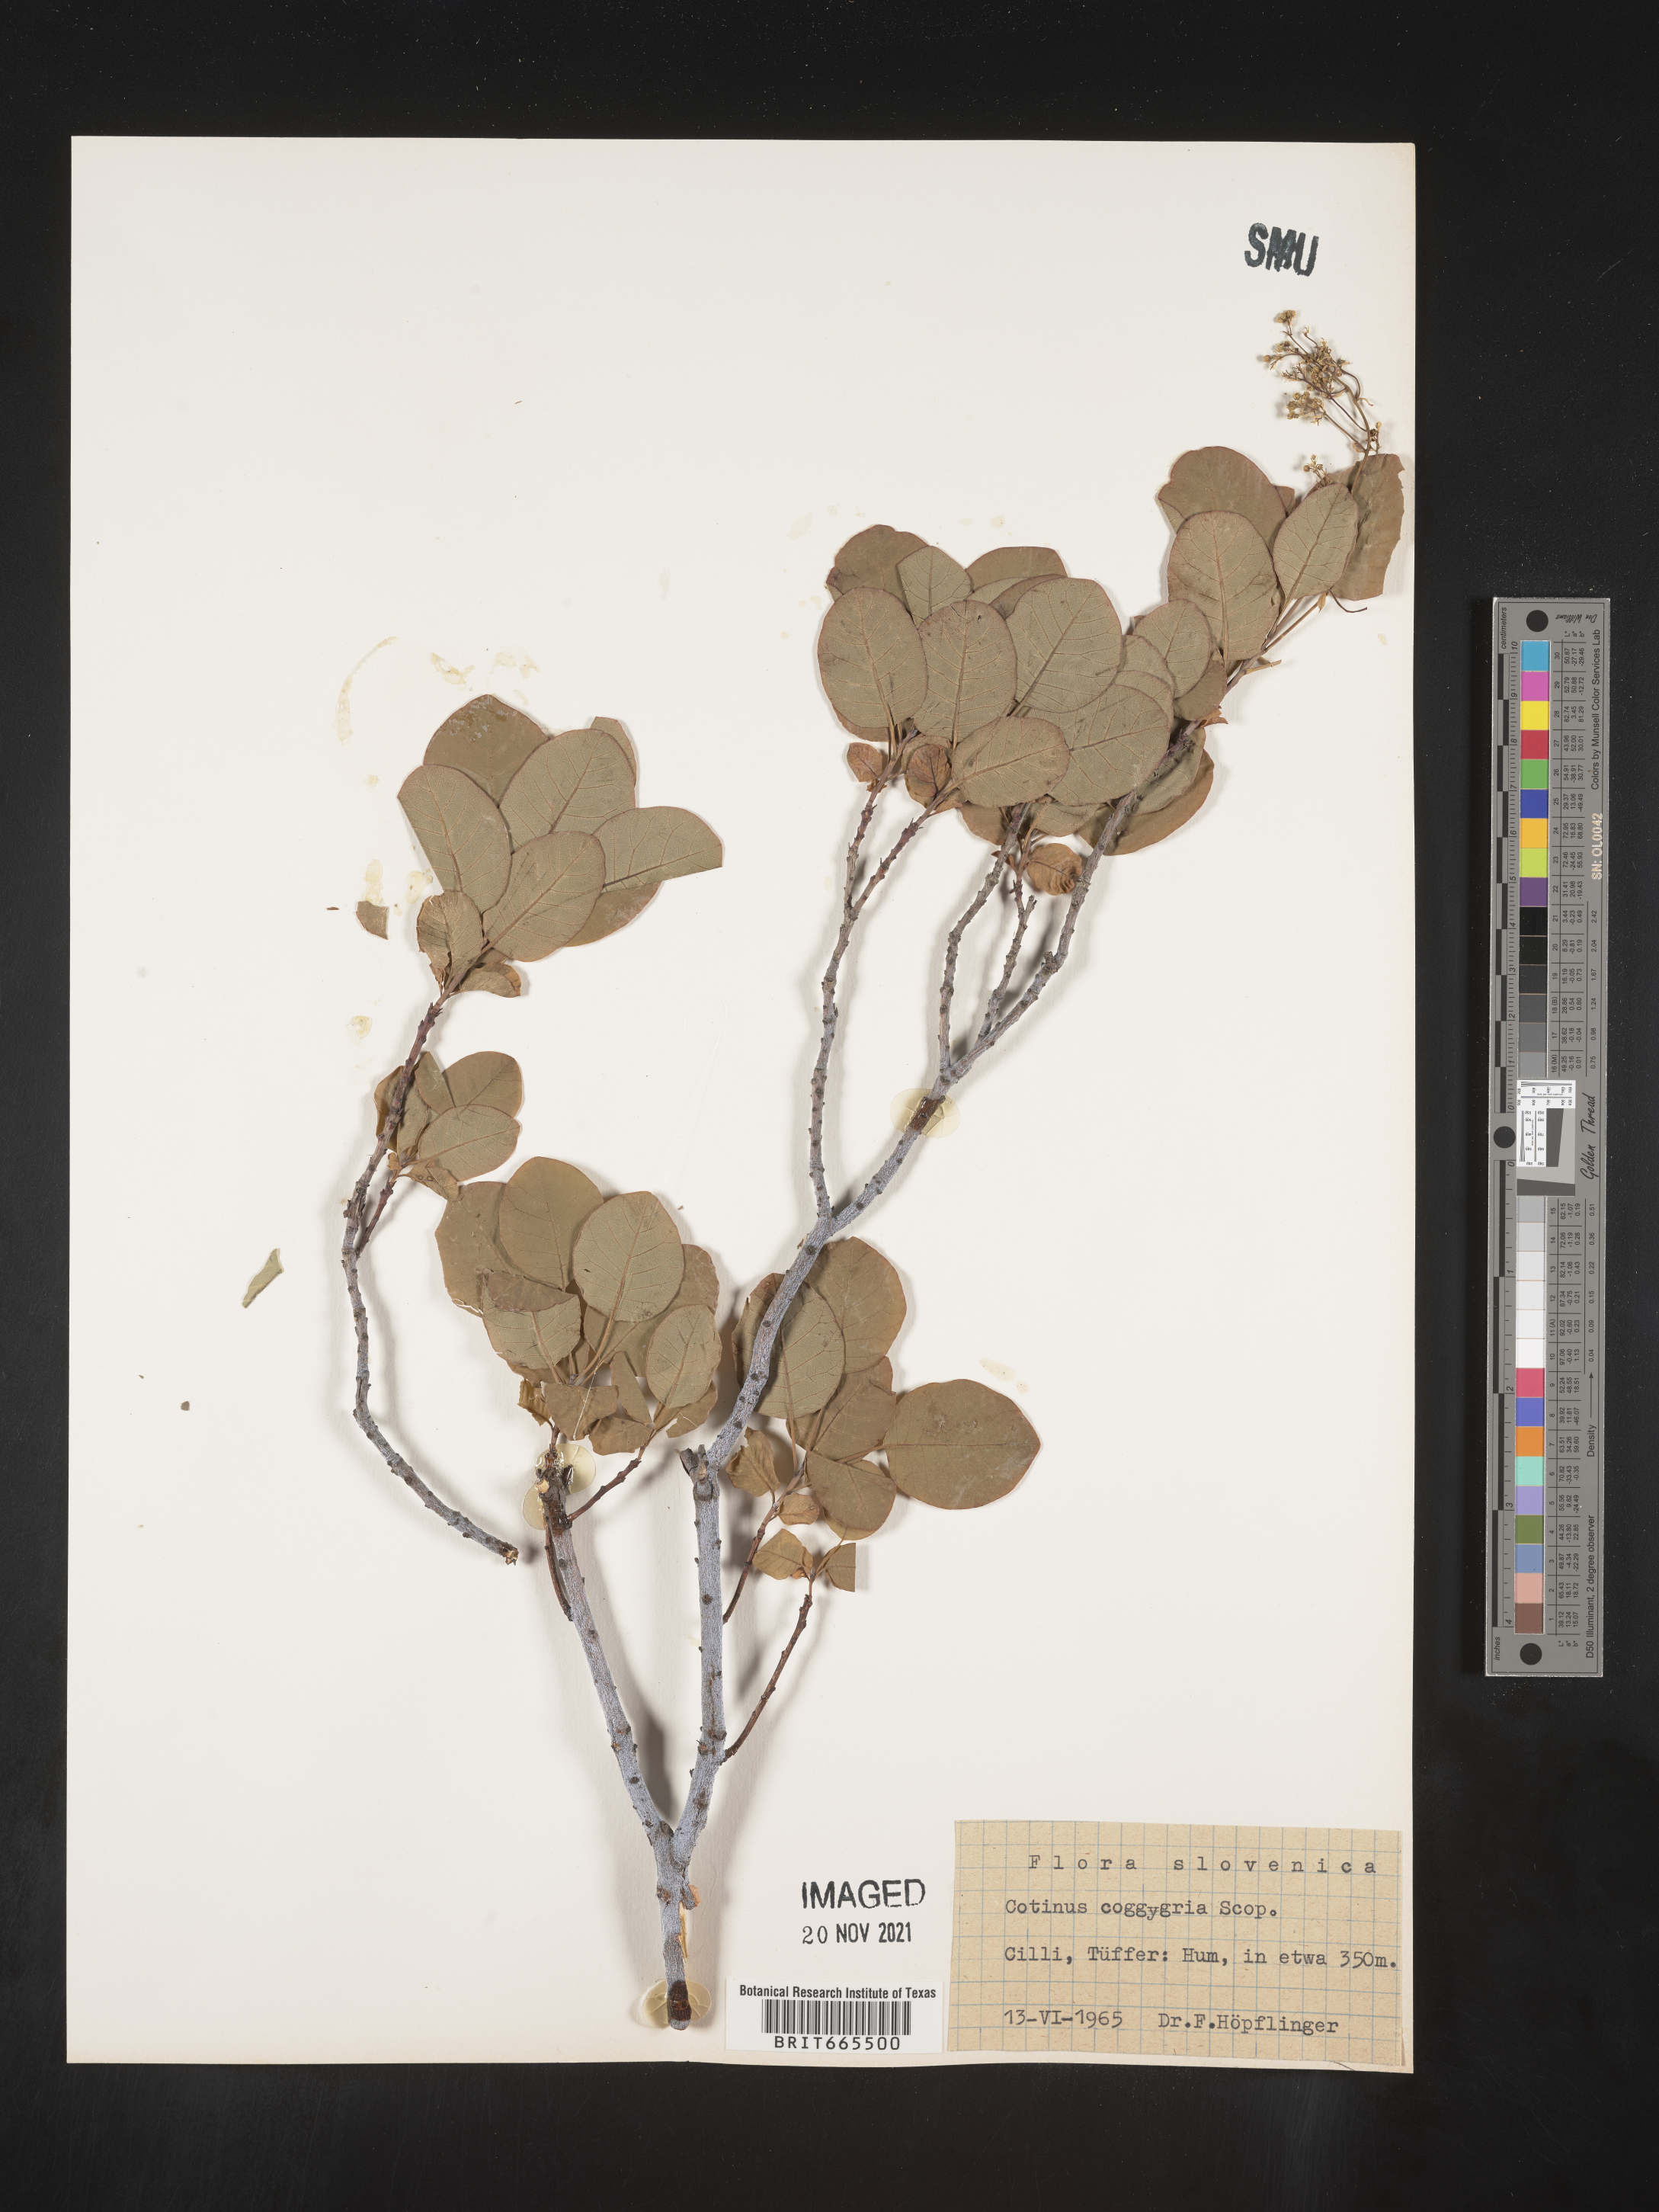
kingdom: Plantae
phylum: Tracheophyta
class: Magnoliopsida
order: Sapindales
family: Anacardiaceae
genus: Cotinus
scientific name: Cotinus
